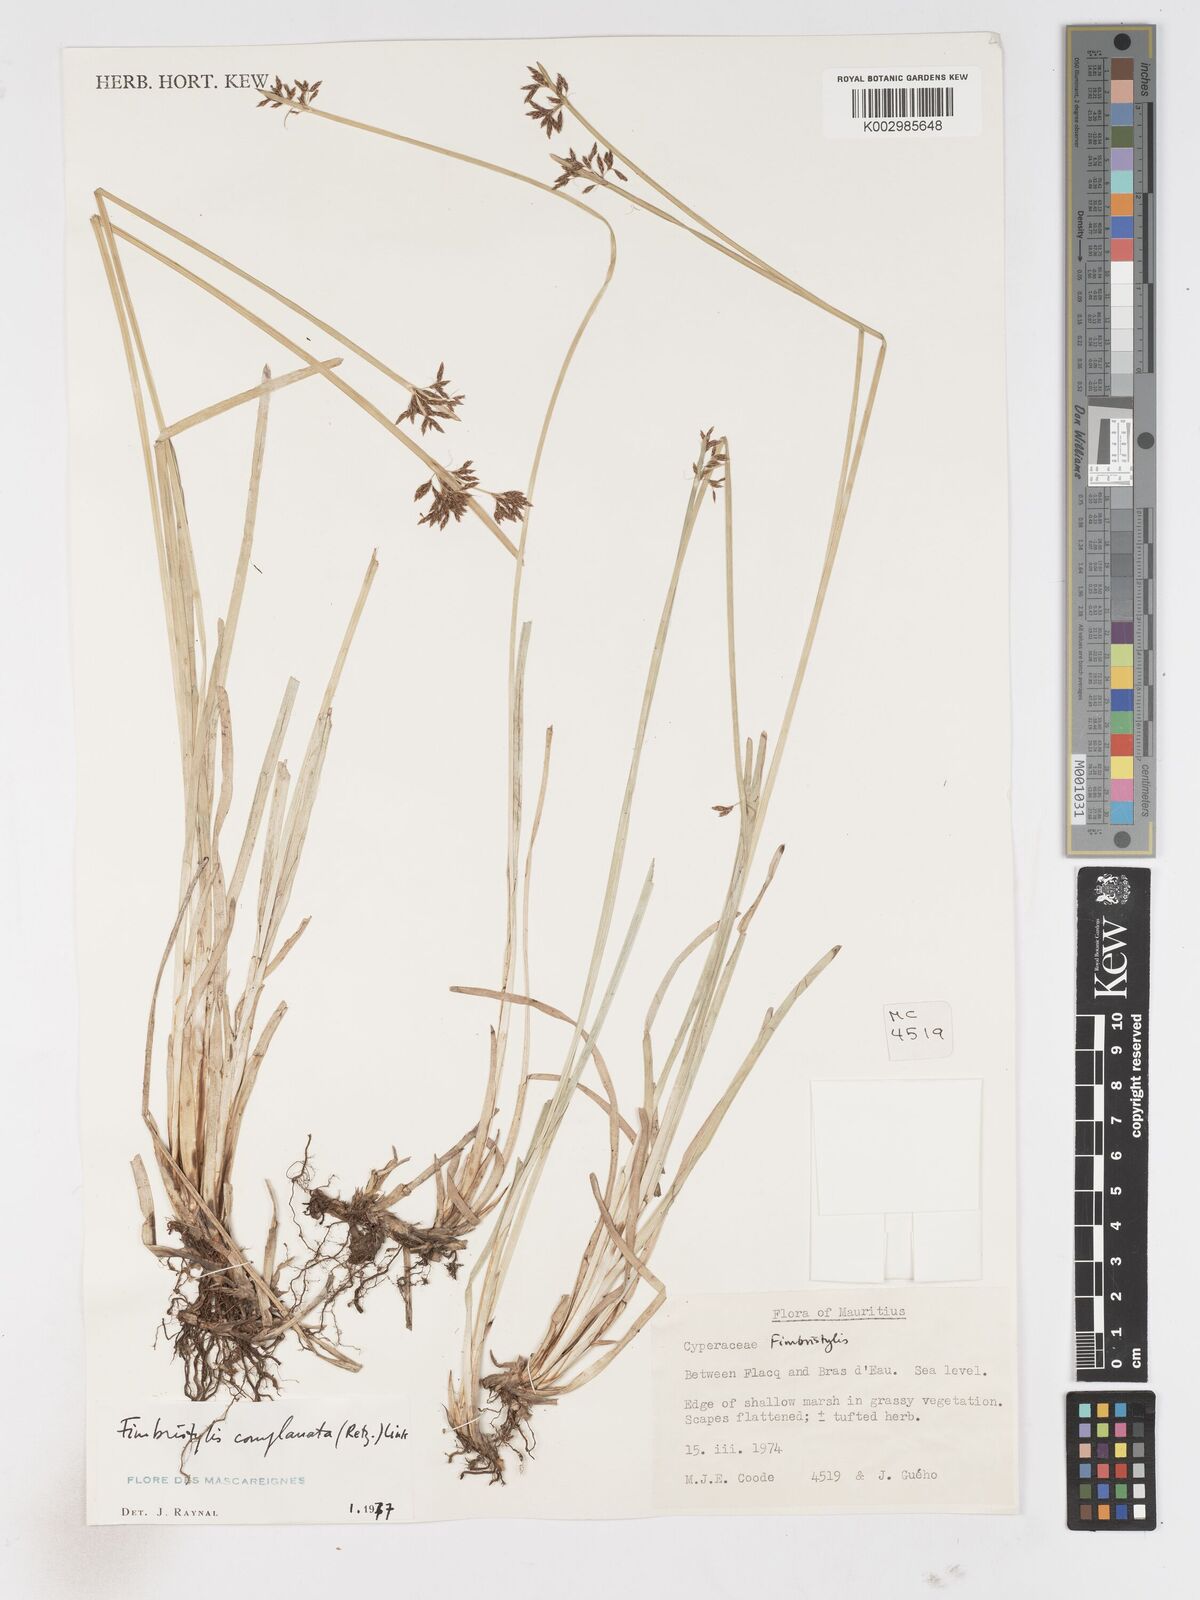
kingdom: Plantae
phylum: Tracheophyta
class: Liliopsida
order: Poales
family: Cyperaceae
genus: Fimbristylis
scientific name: Fimbristylis complanata
